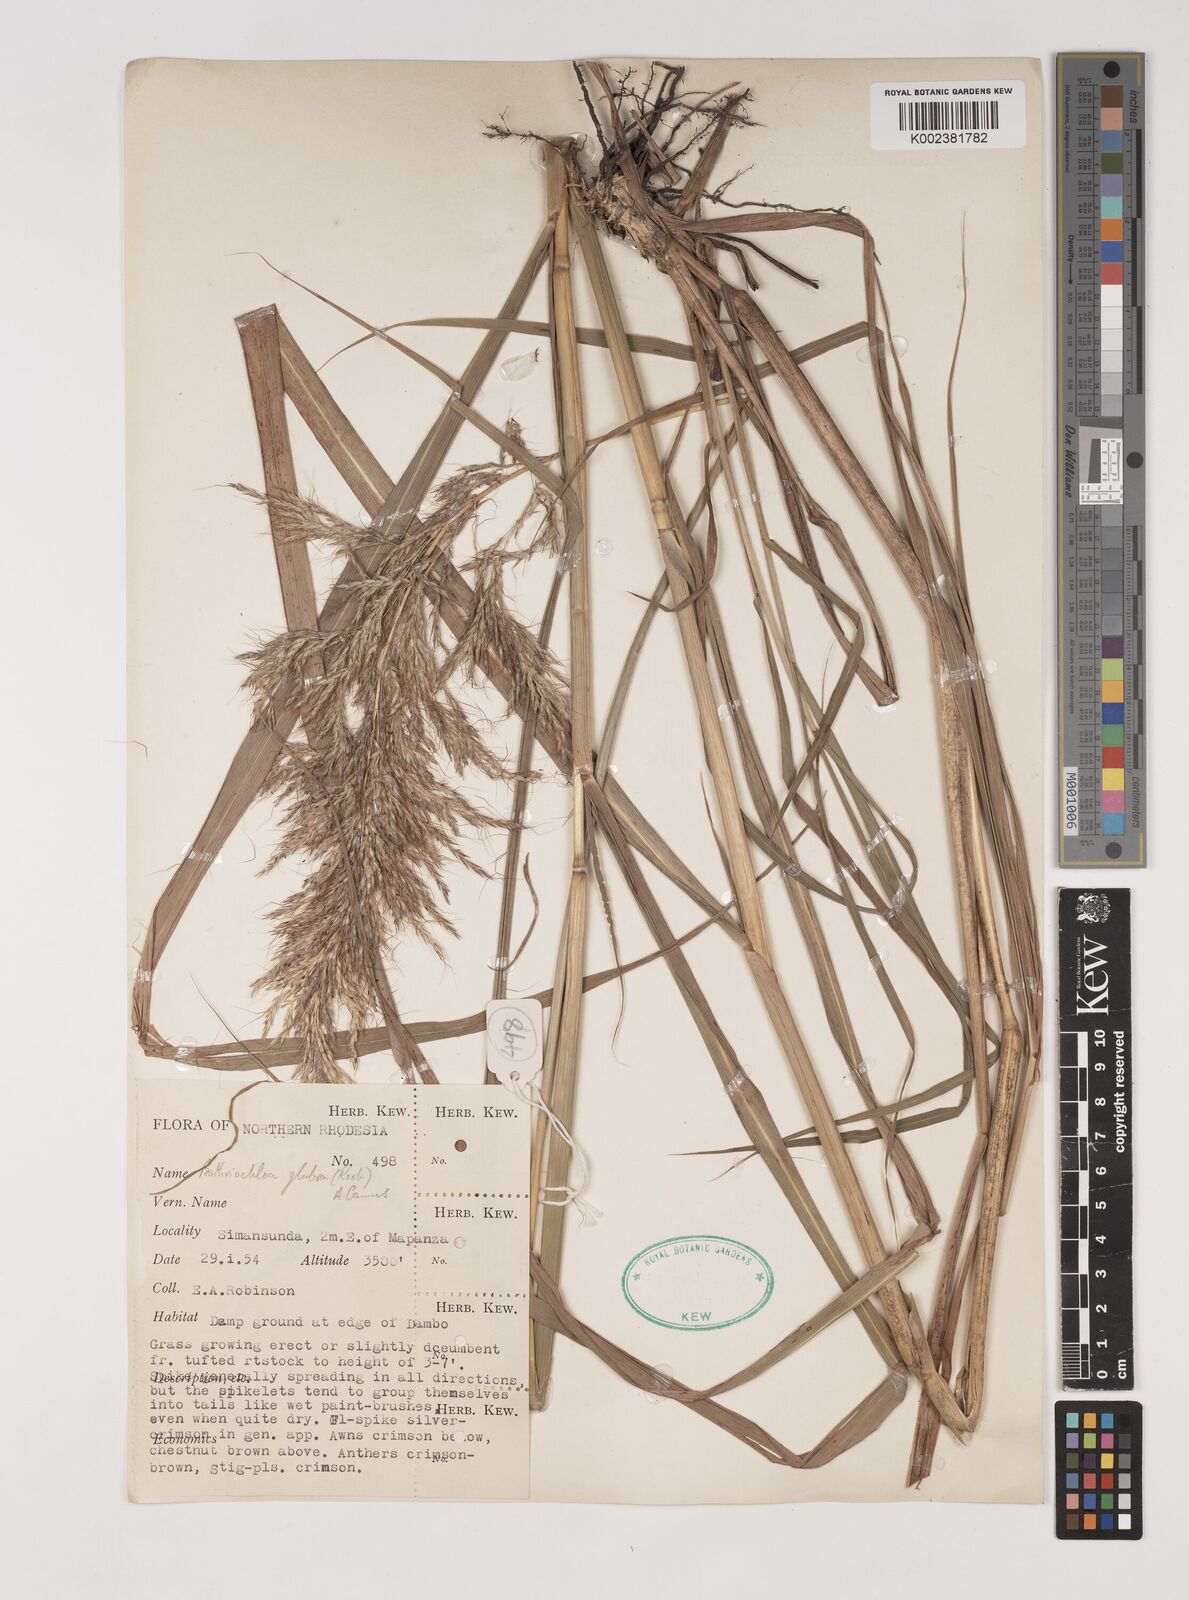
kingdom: Plantae
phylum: Tracheophyta
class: Liliopsida
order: Poales
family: Poaceae
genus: Bothriochloa
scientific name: Bothriochloa bladhii
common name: Caucasian bluestem
